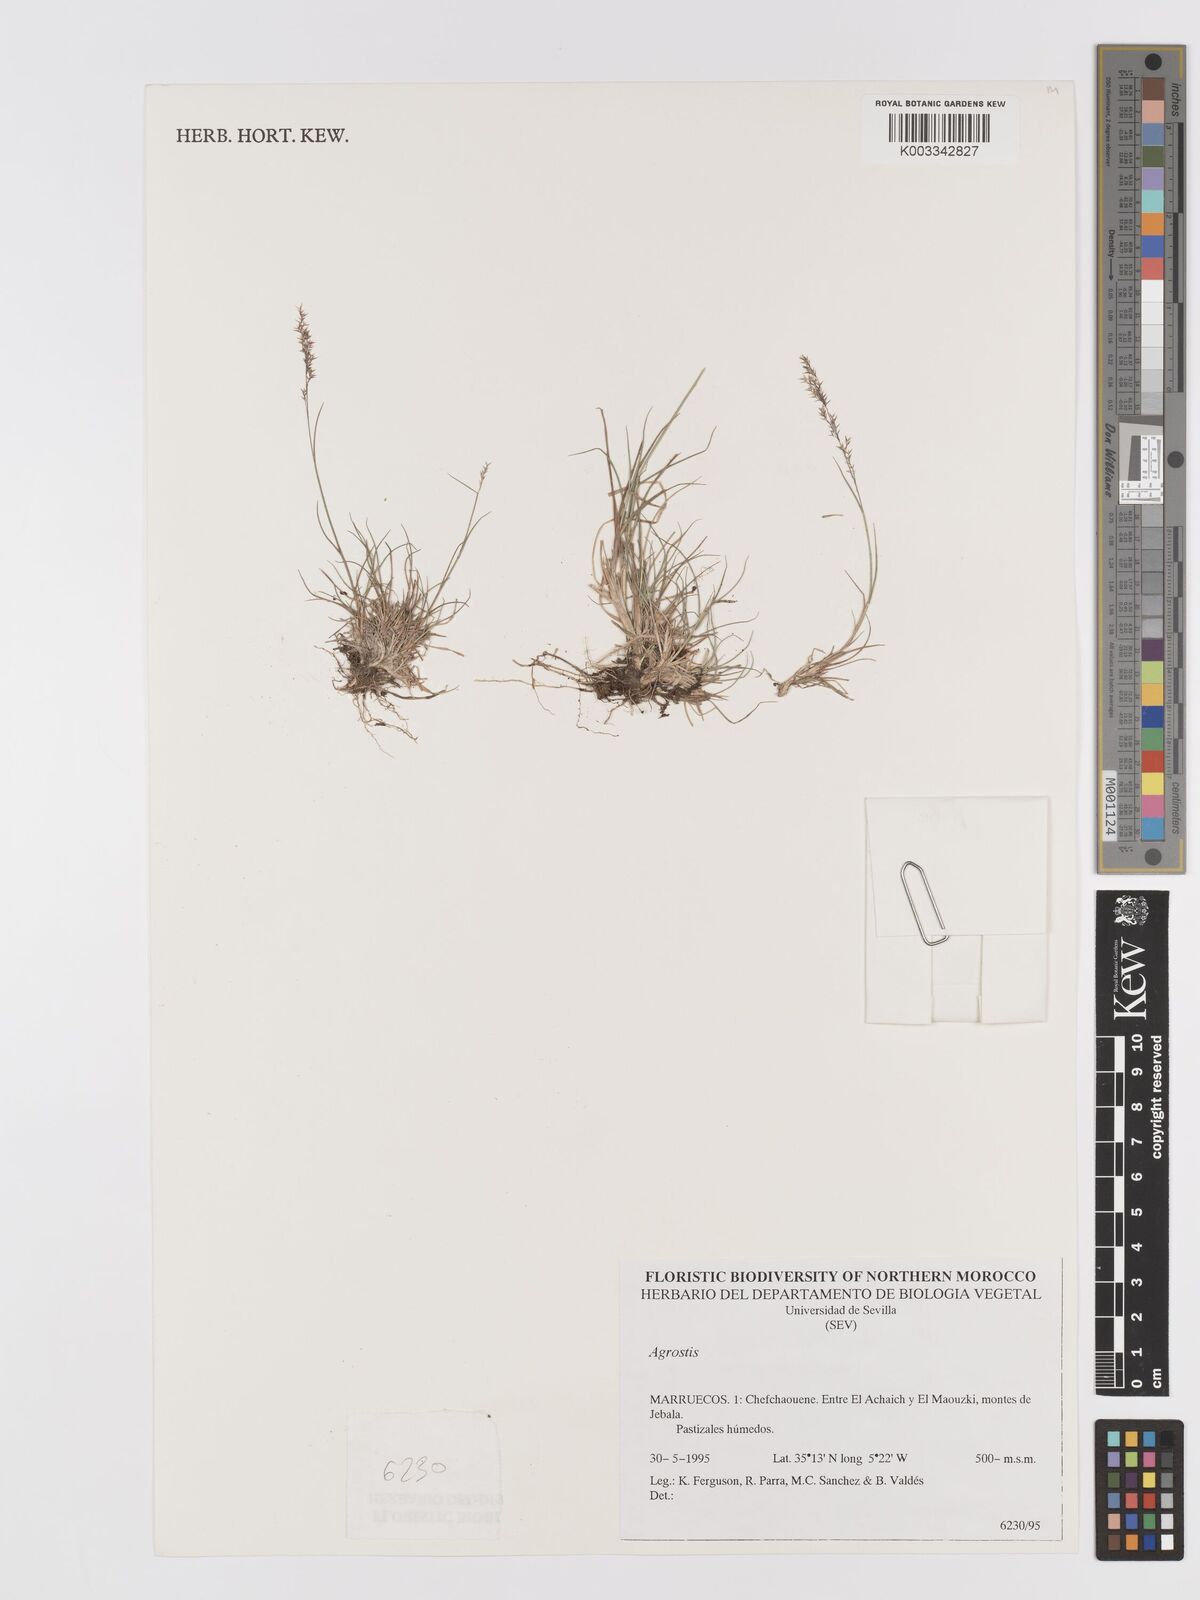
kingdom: Plantae
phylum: Tracheophyta
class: Liliopsida
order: Poales
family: Poaceae
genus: Agrostis
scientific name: Agrostis
